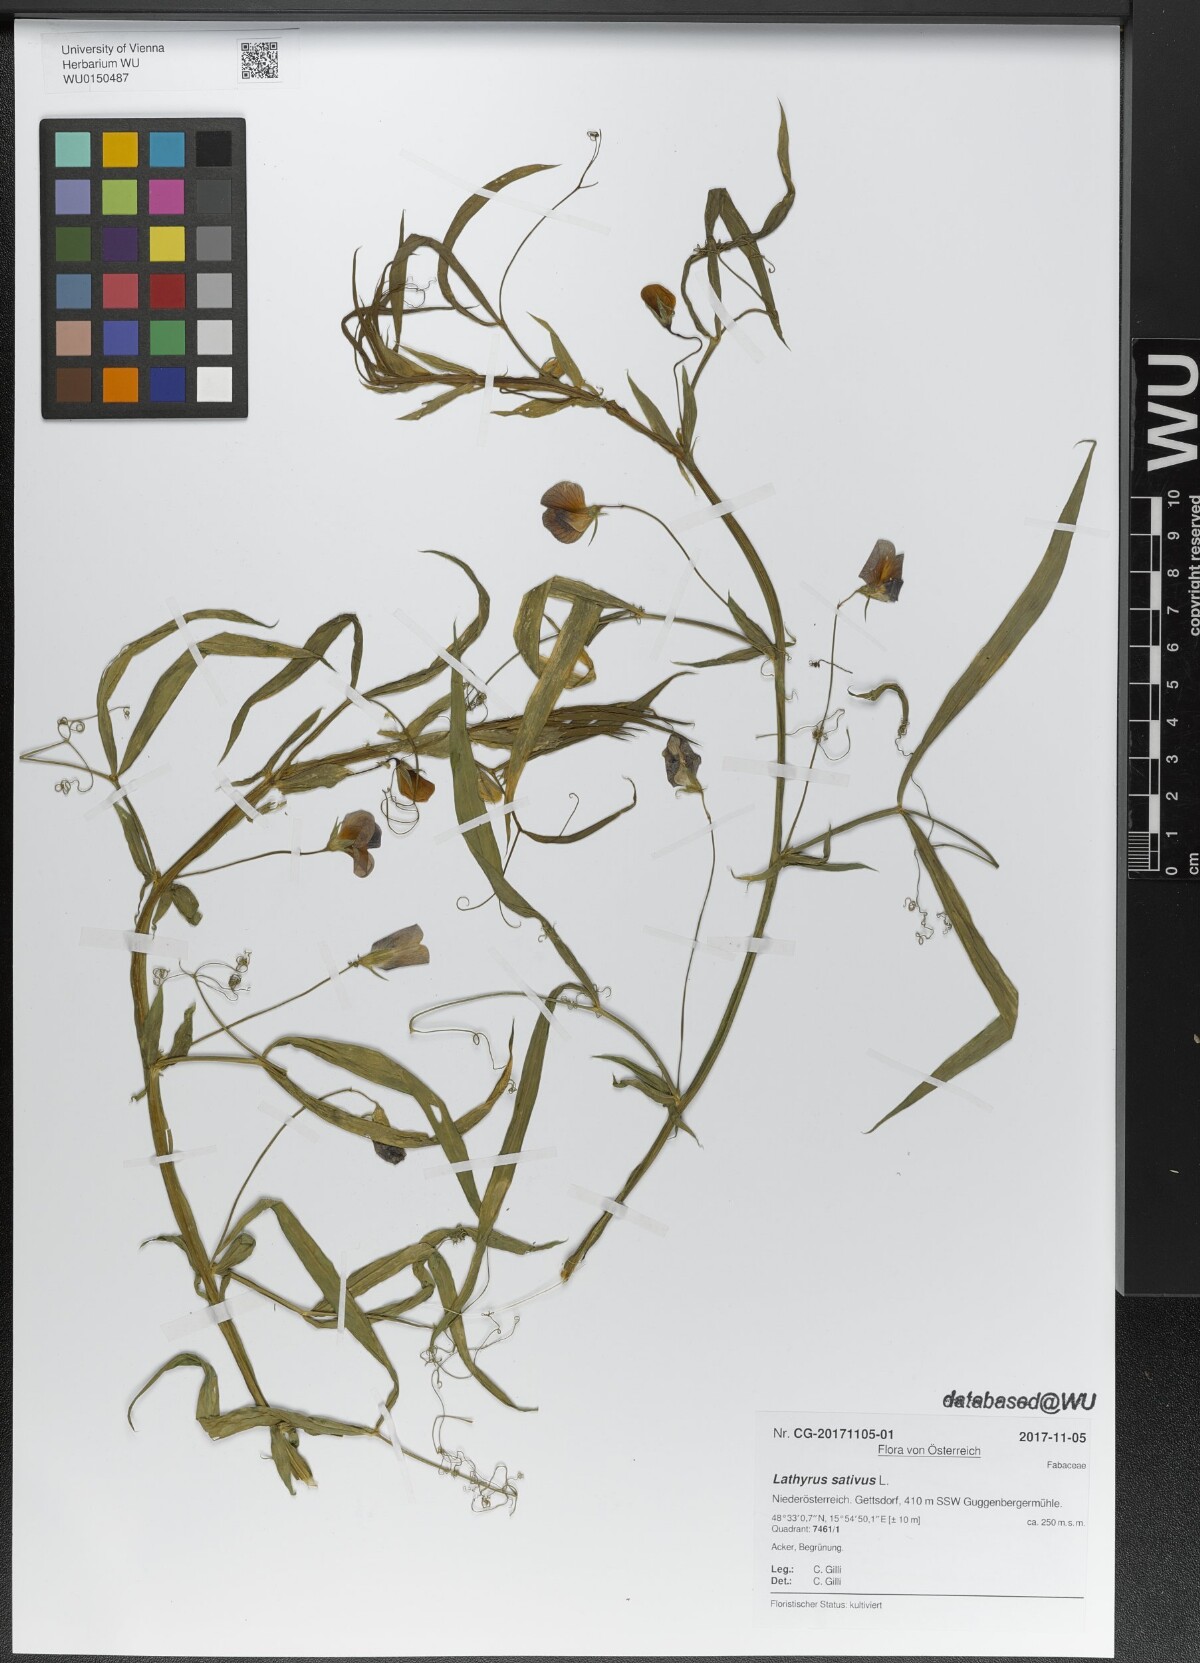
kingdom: Plantae
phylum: Tracheophyta
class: Magnoliopsida
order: Fabales
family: Fabaceae
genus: Lathyrus
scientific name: Lathyrus sativus
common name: Indian pea
